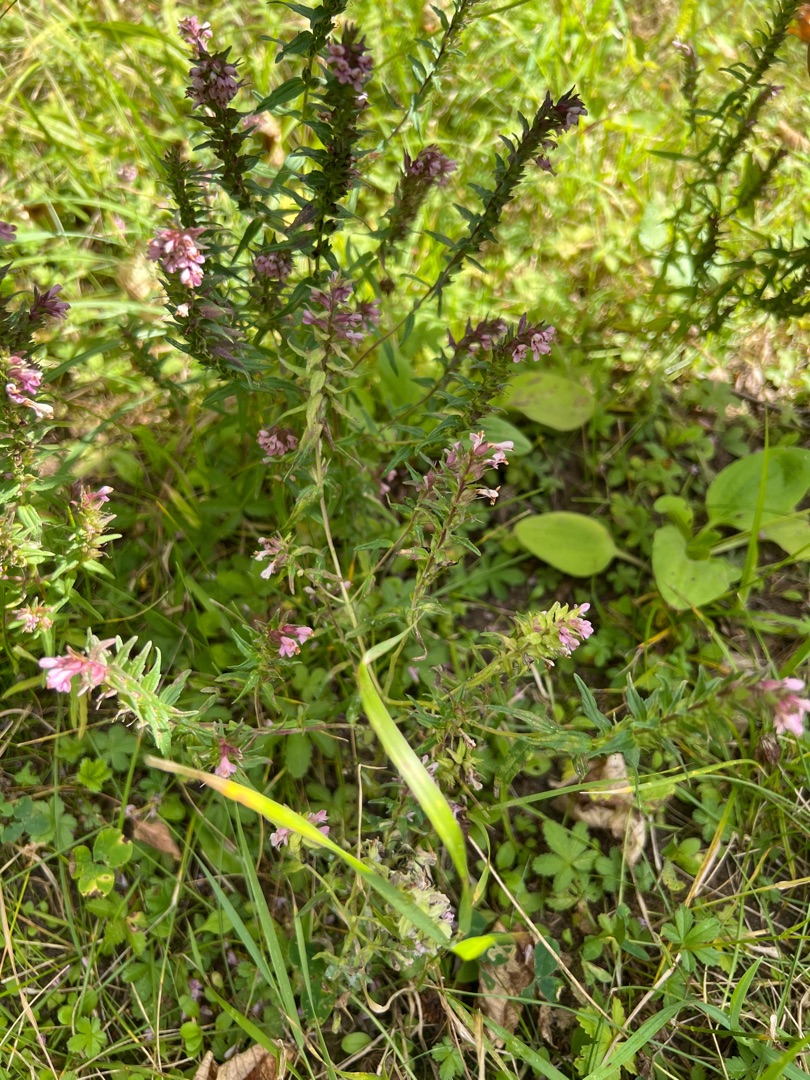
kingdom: Plantae
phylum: Tracheophyta
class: Magnoliopsida
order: Lamiales
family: Orobanchaceae
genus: Odontites
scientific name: Odontites vulgaris
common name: Høst-rødtop
